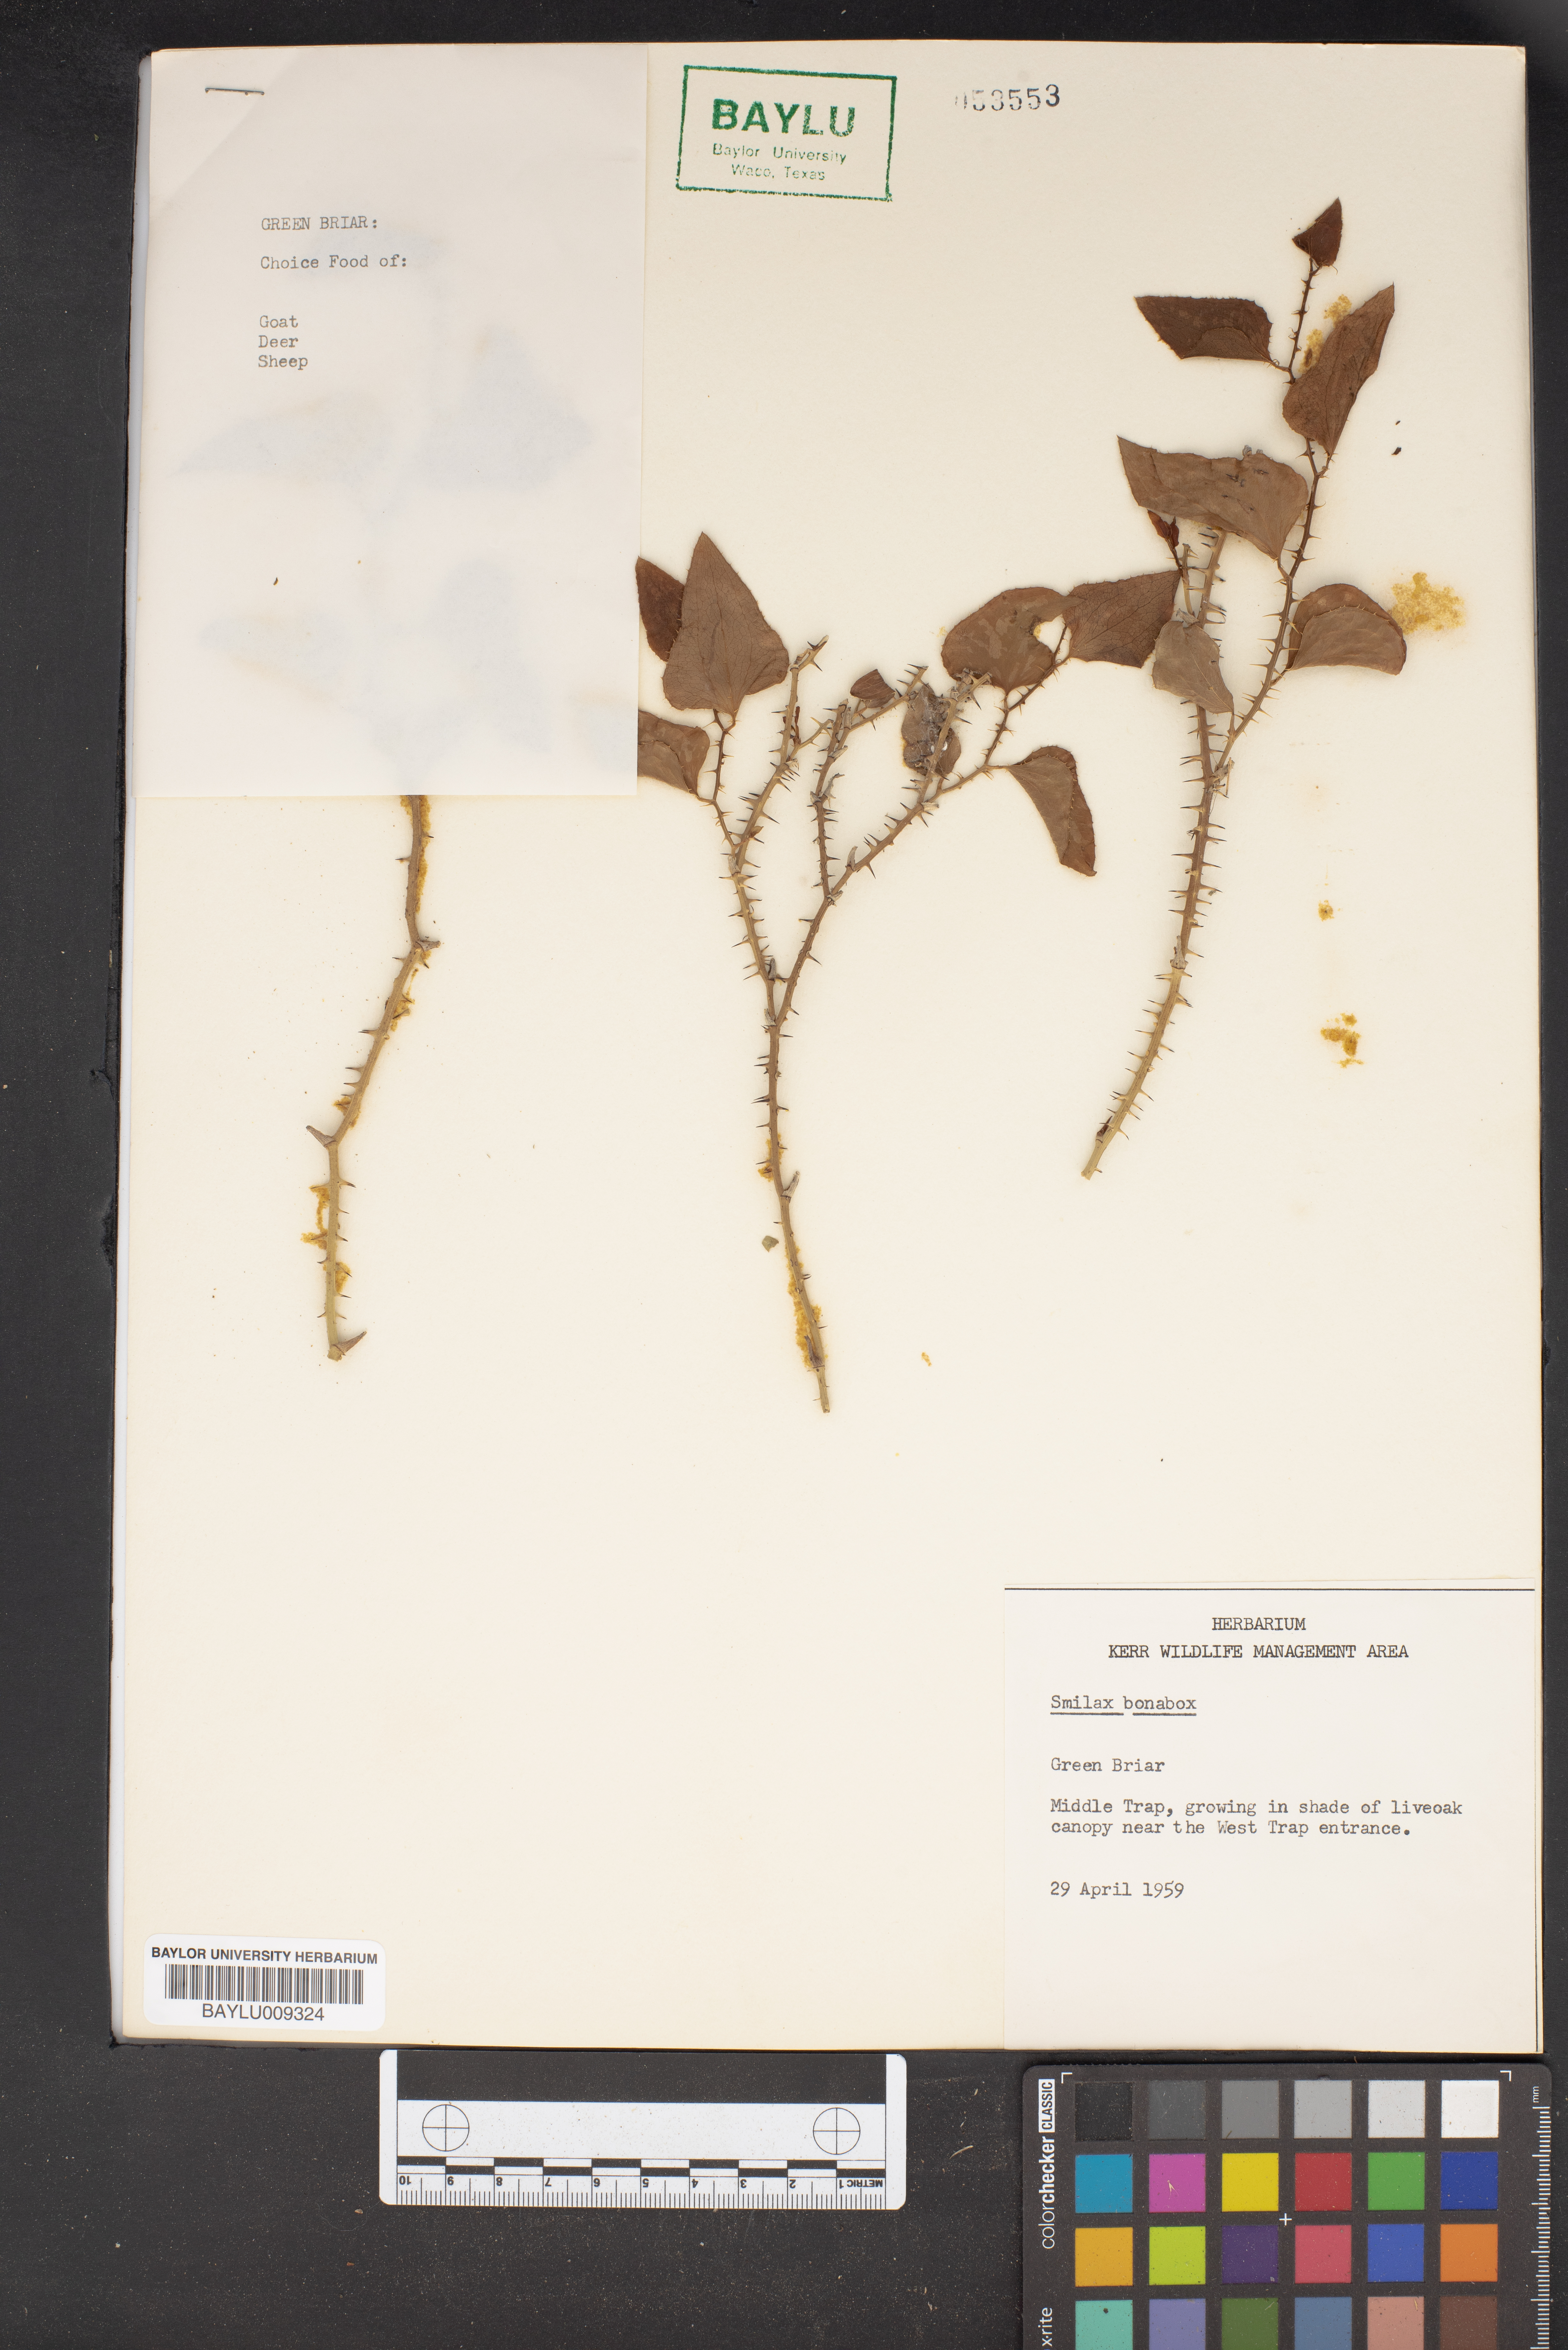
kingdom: Plantae
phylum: Tracheophyta
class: Liliopsida
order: Liliales
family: Smilacaceae
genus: Smilax
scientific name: Smilax bona-nox
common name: Catbrier
